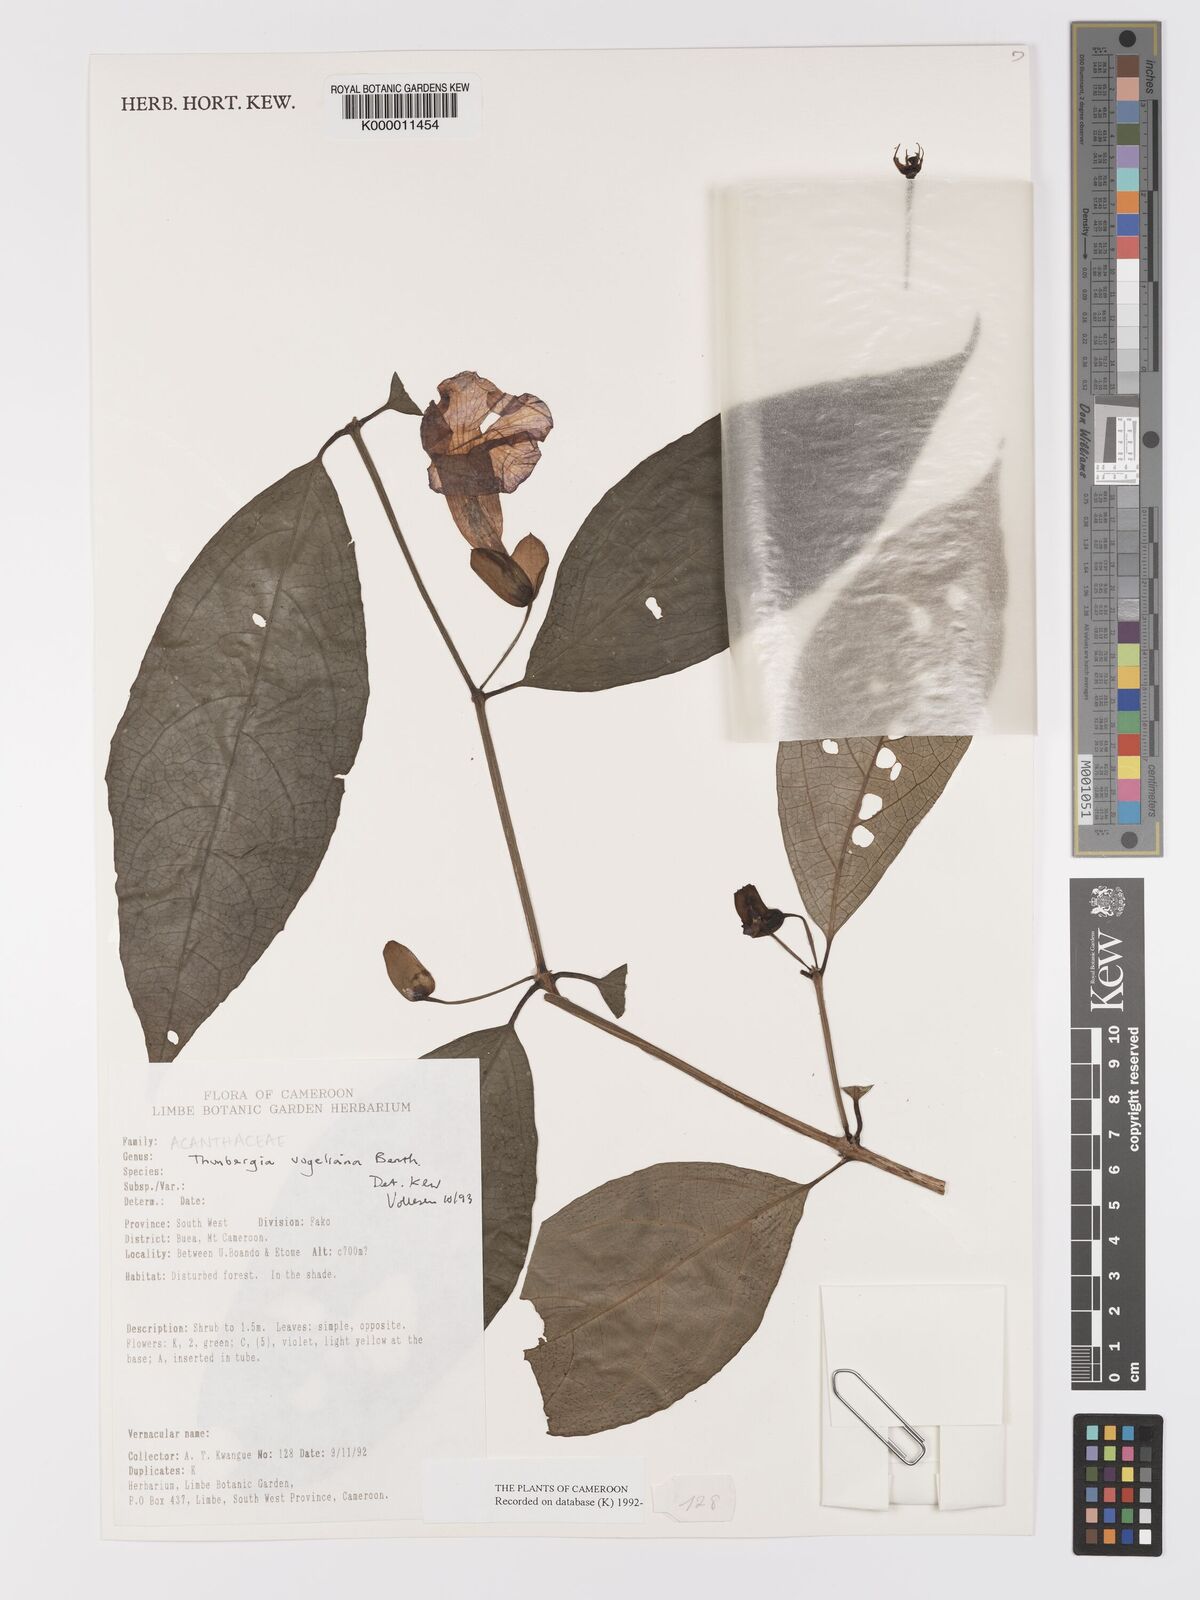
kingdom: Plantae
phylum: Tracheophyta
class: Magnoliopsida
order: Lamiales
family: Acanthaceae
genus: Thunbergia
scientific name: Thunbergia vogeliana
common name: Acanthaceae
